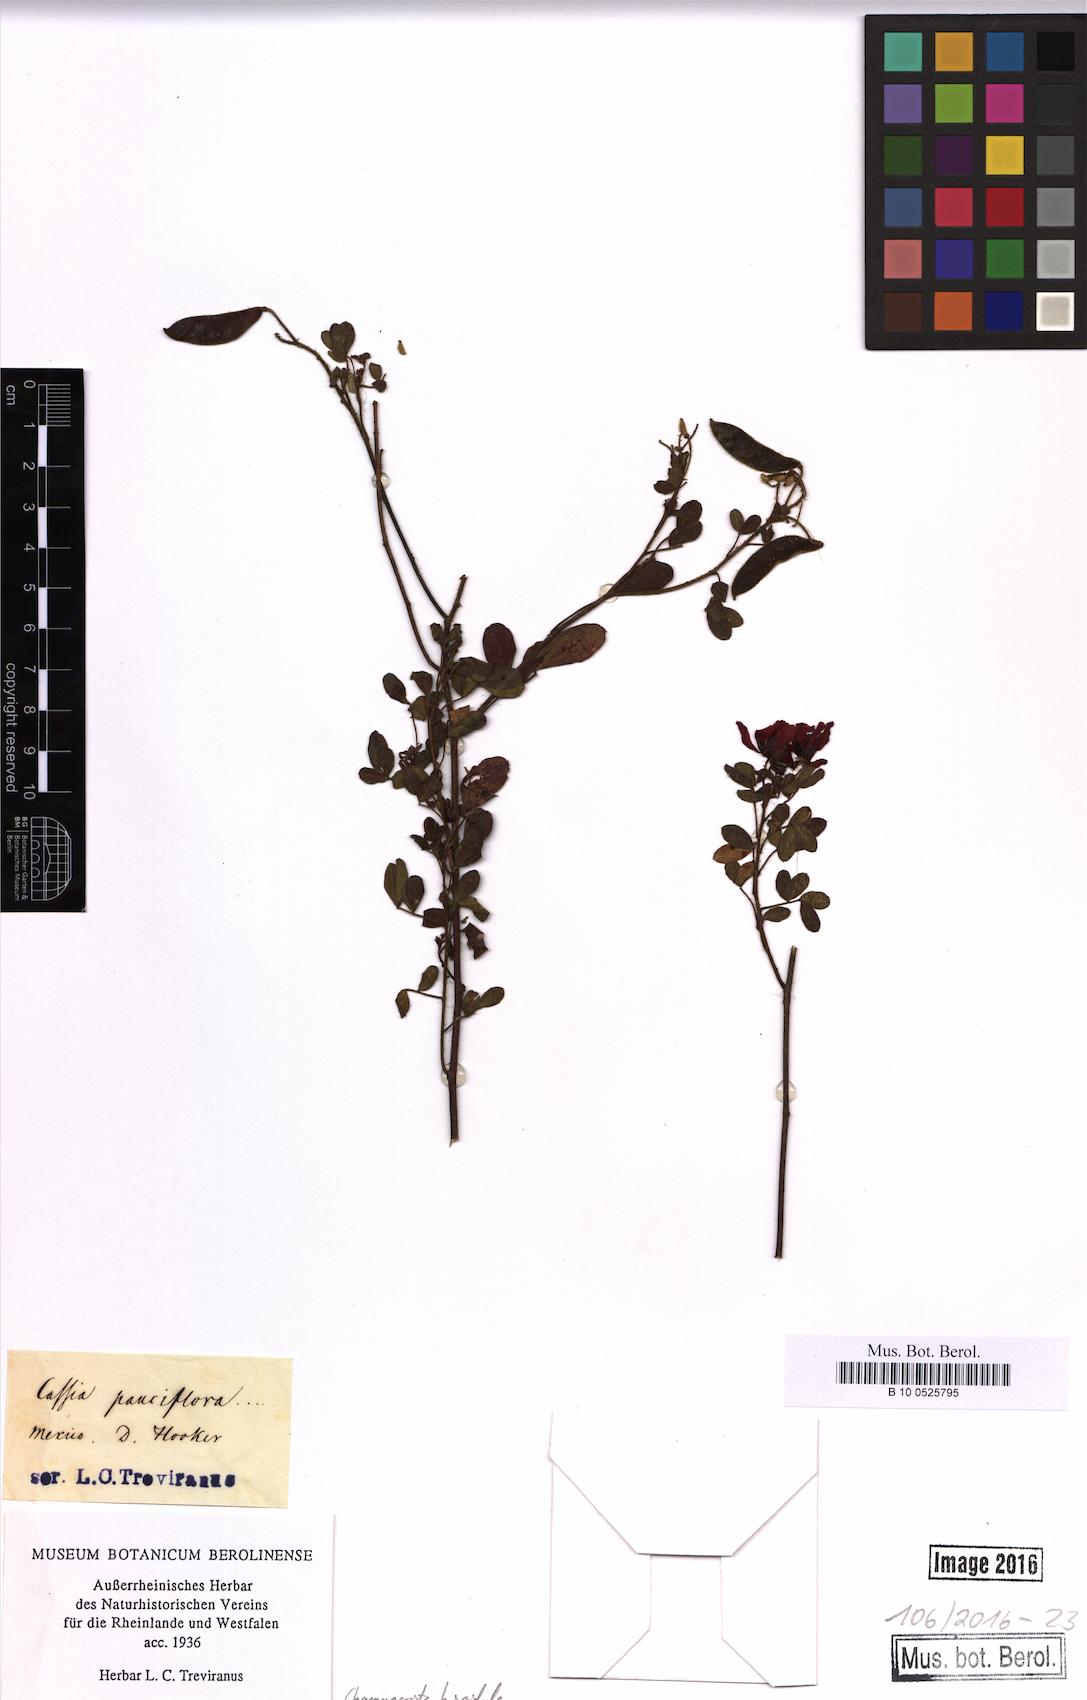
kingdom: Plantae
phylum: Tracheophyta
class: Magnoliopsida
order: Fabales
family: Fabaceae
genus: Chamaecrista
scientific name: Chamaecrista hispidula
